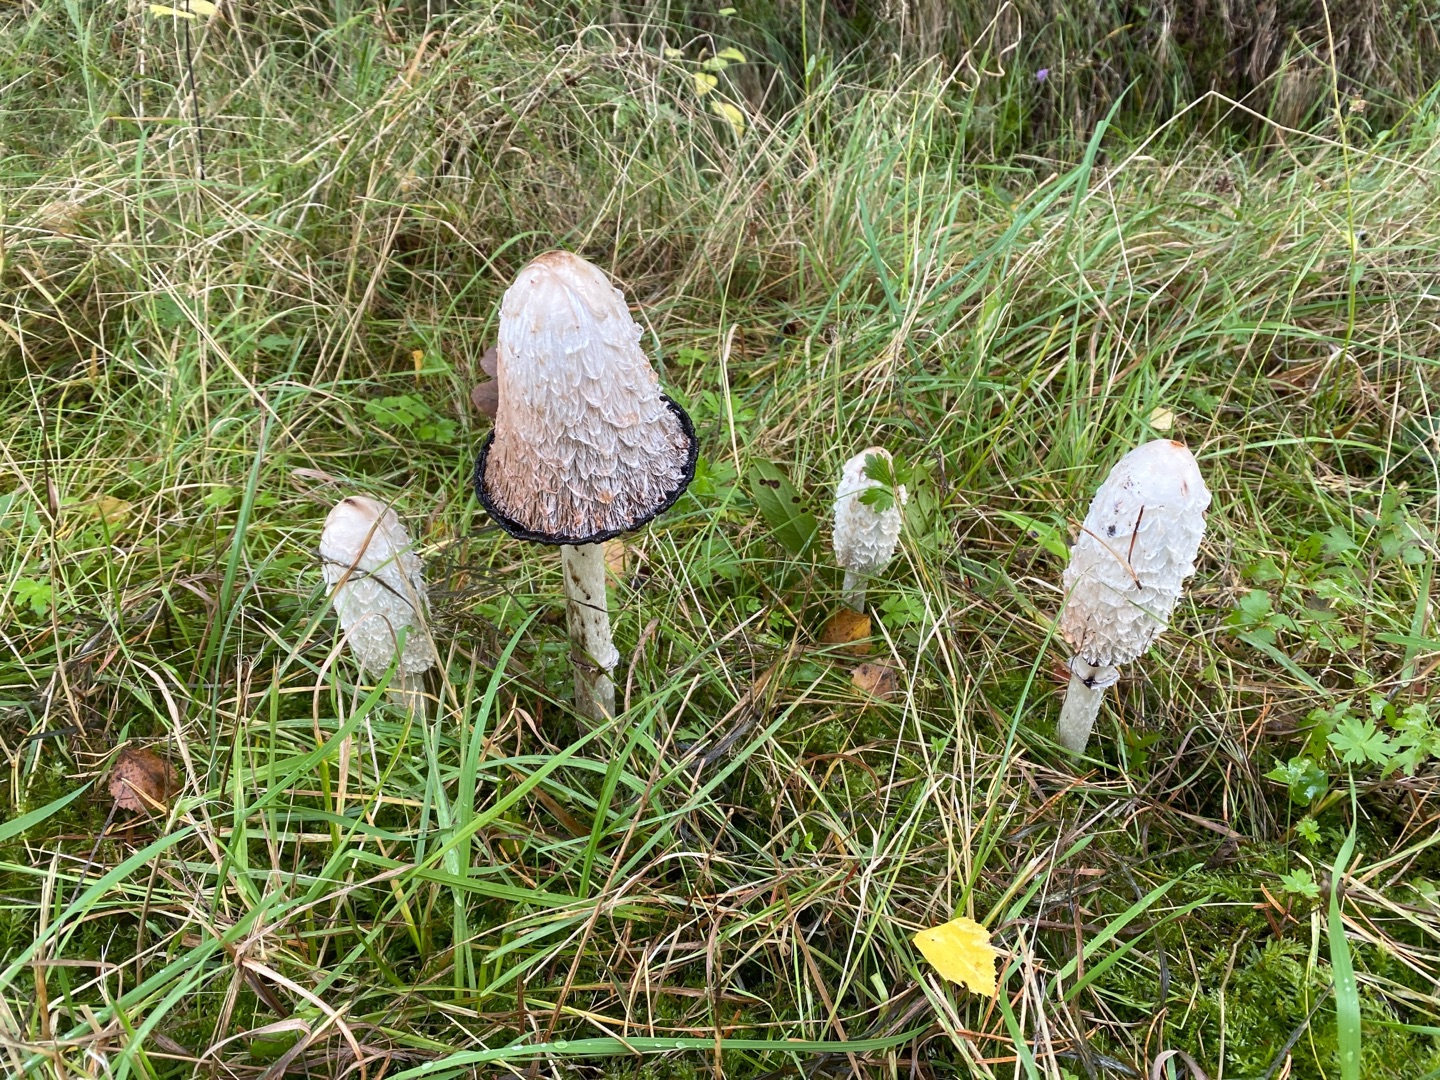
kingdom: Fungi
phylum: Basidiomycota
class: Agaricomycetes
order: Agaricales
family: Agaricaceae
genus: Coprinus
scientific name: Coprinus comatus
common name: Stor parykhat
